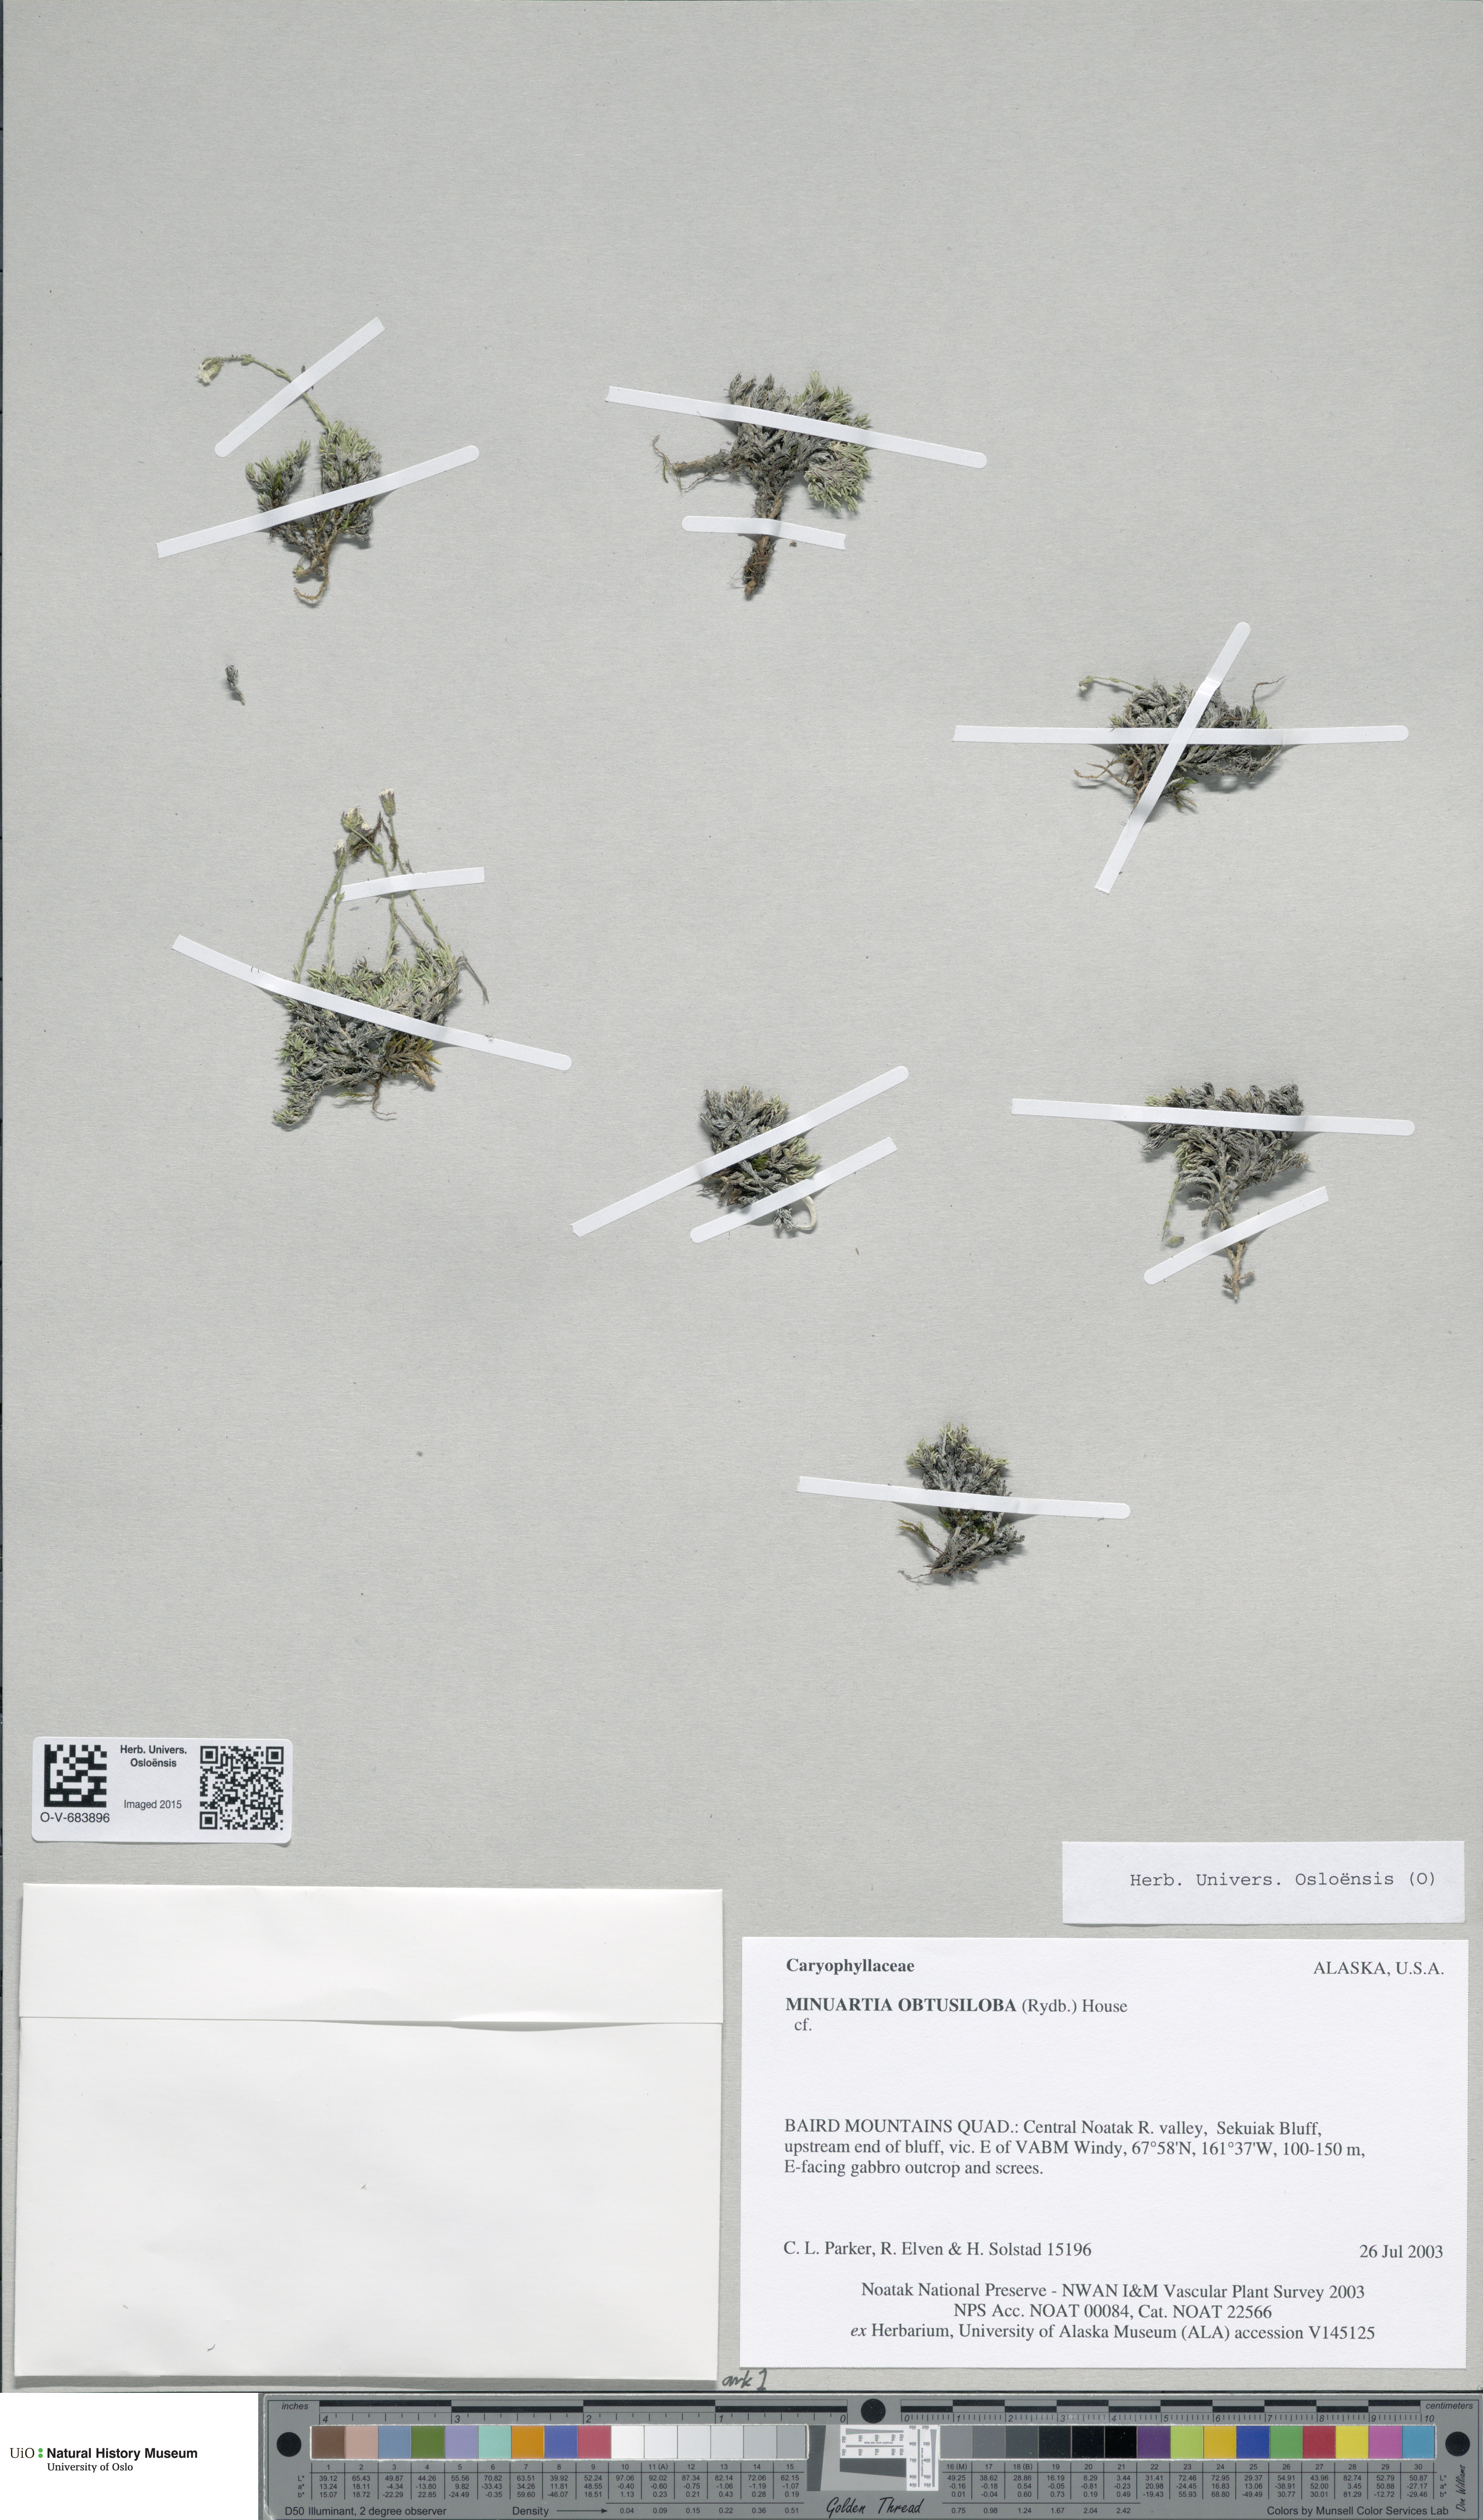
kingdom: Plantae
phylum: Tracheophyta
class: Magnoliopsida
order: Caryophyllales
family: Caryophyllaceae
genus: Cherleria
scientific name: Cherleria obtusiloba
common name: Alpine stitchwort
